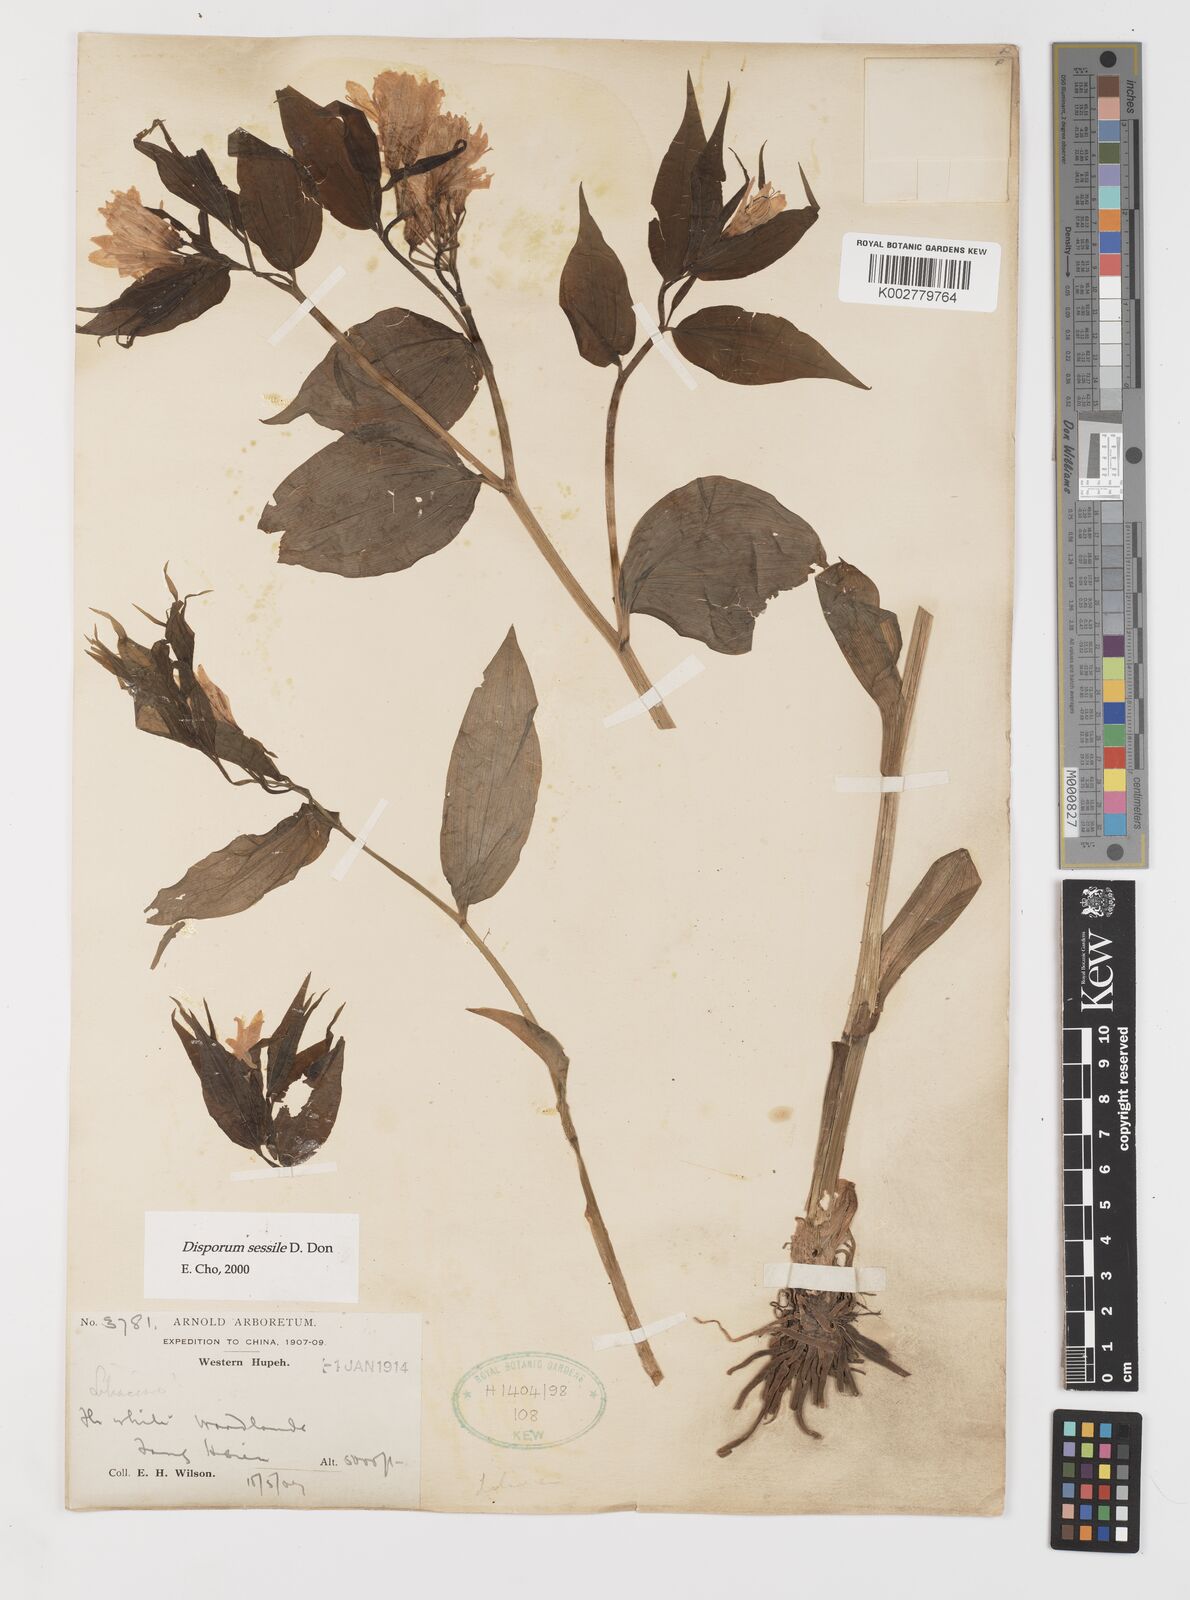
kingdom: Plantae
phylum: Tracheophyta
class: Liliopsida
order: Liliales
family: Colchicaceae
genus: Disporum
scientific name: Disporum sessile
